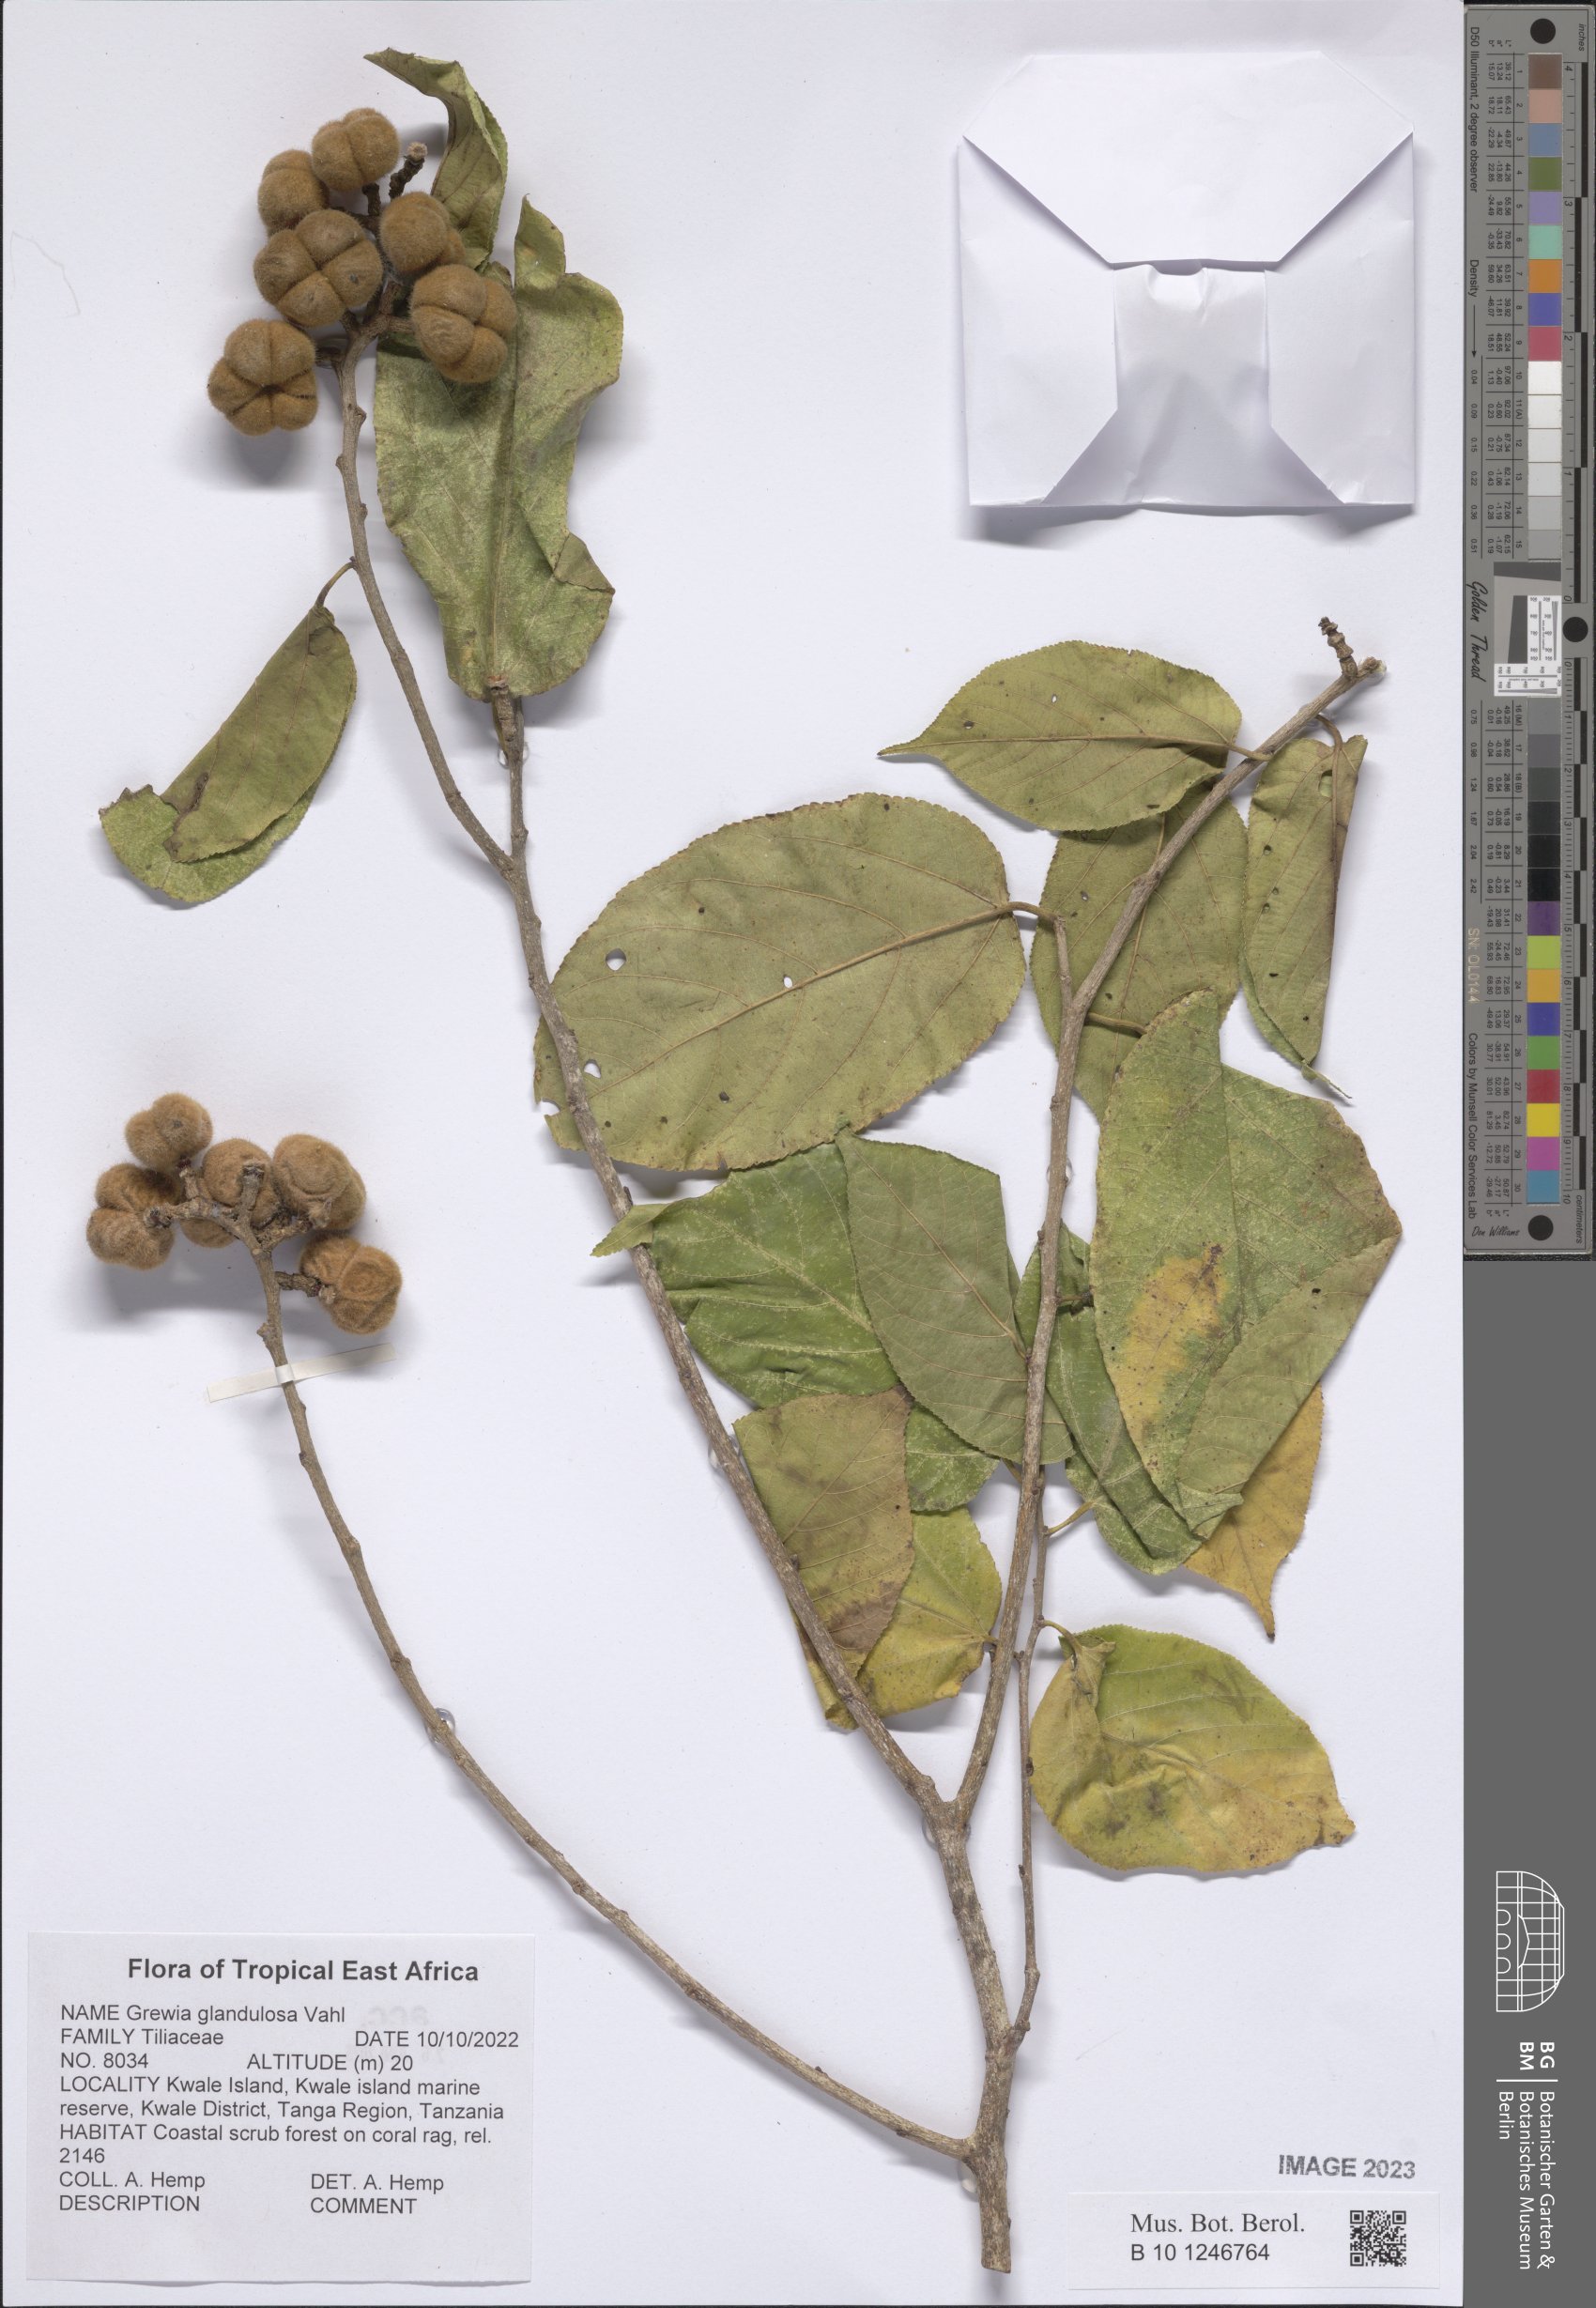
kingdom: Plantae
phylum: Tracheophyta
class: Magnoliopsida
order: Malvales
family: Malvaceae
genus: Grewia
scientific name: Grewia glandulosa
